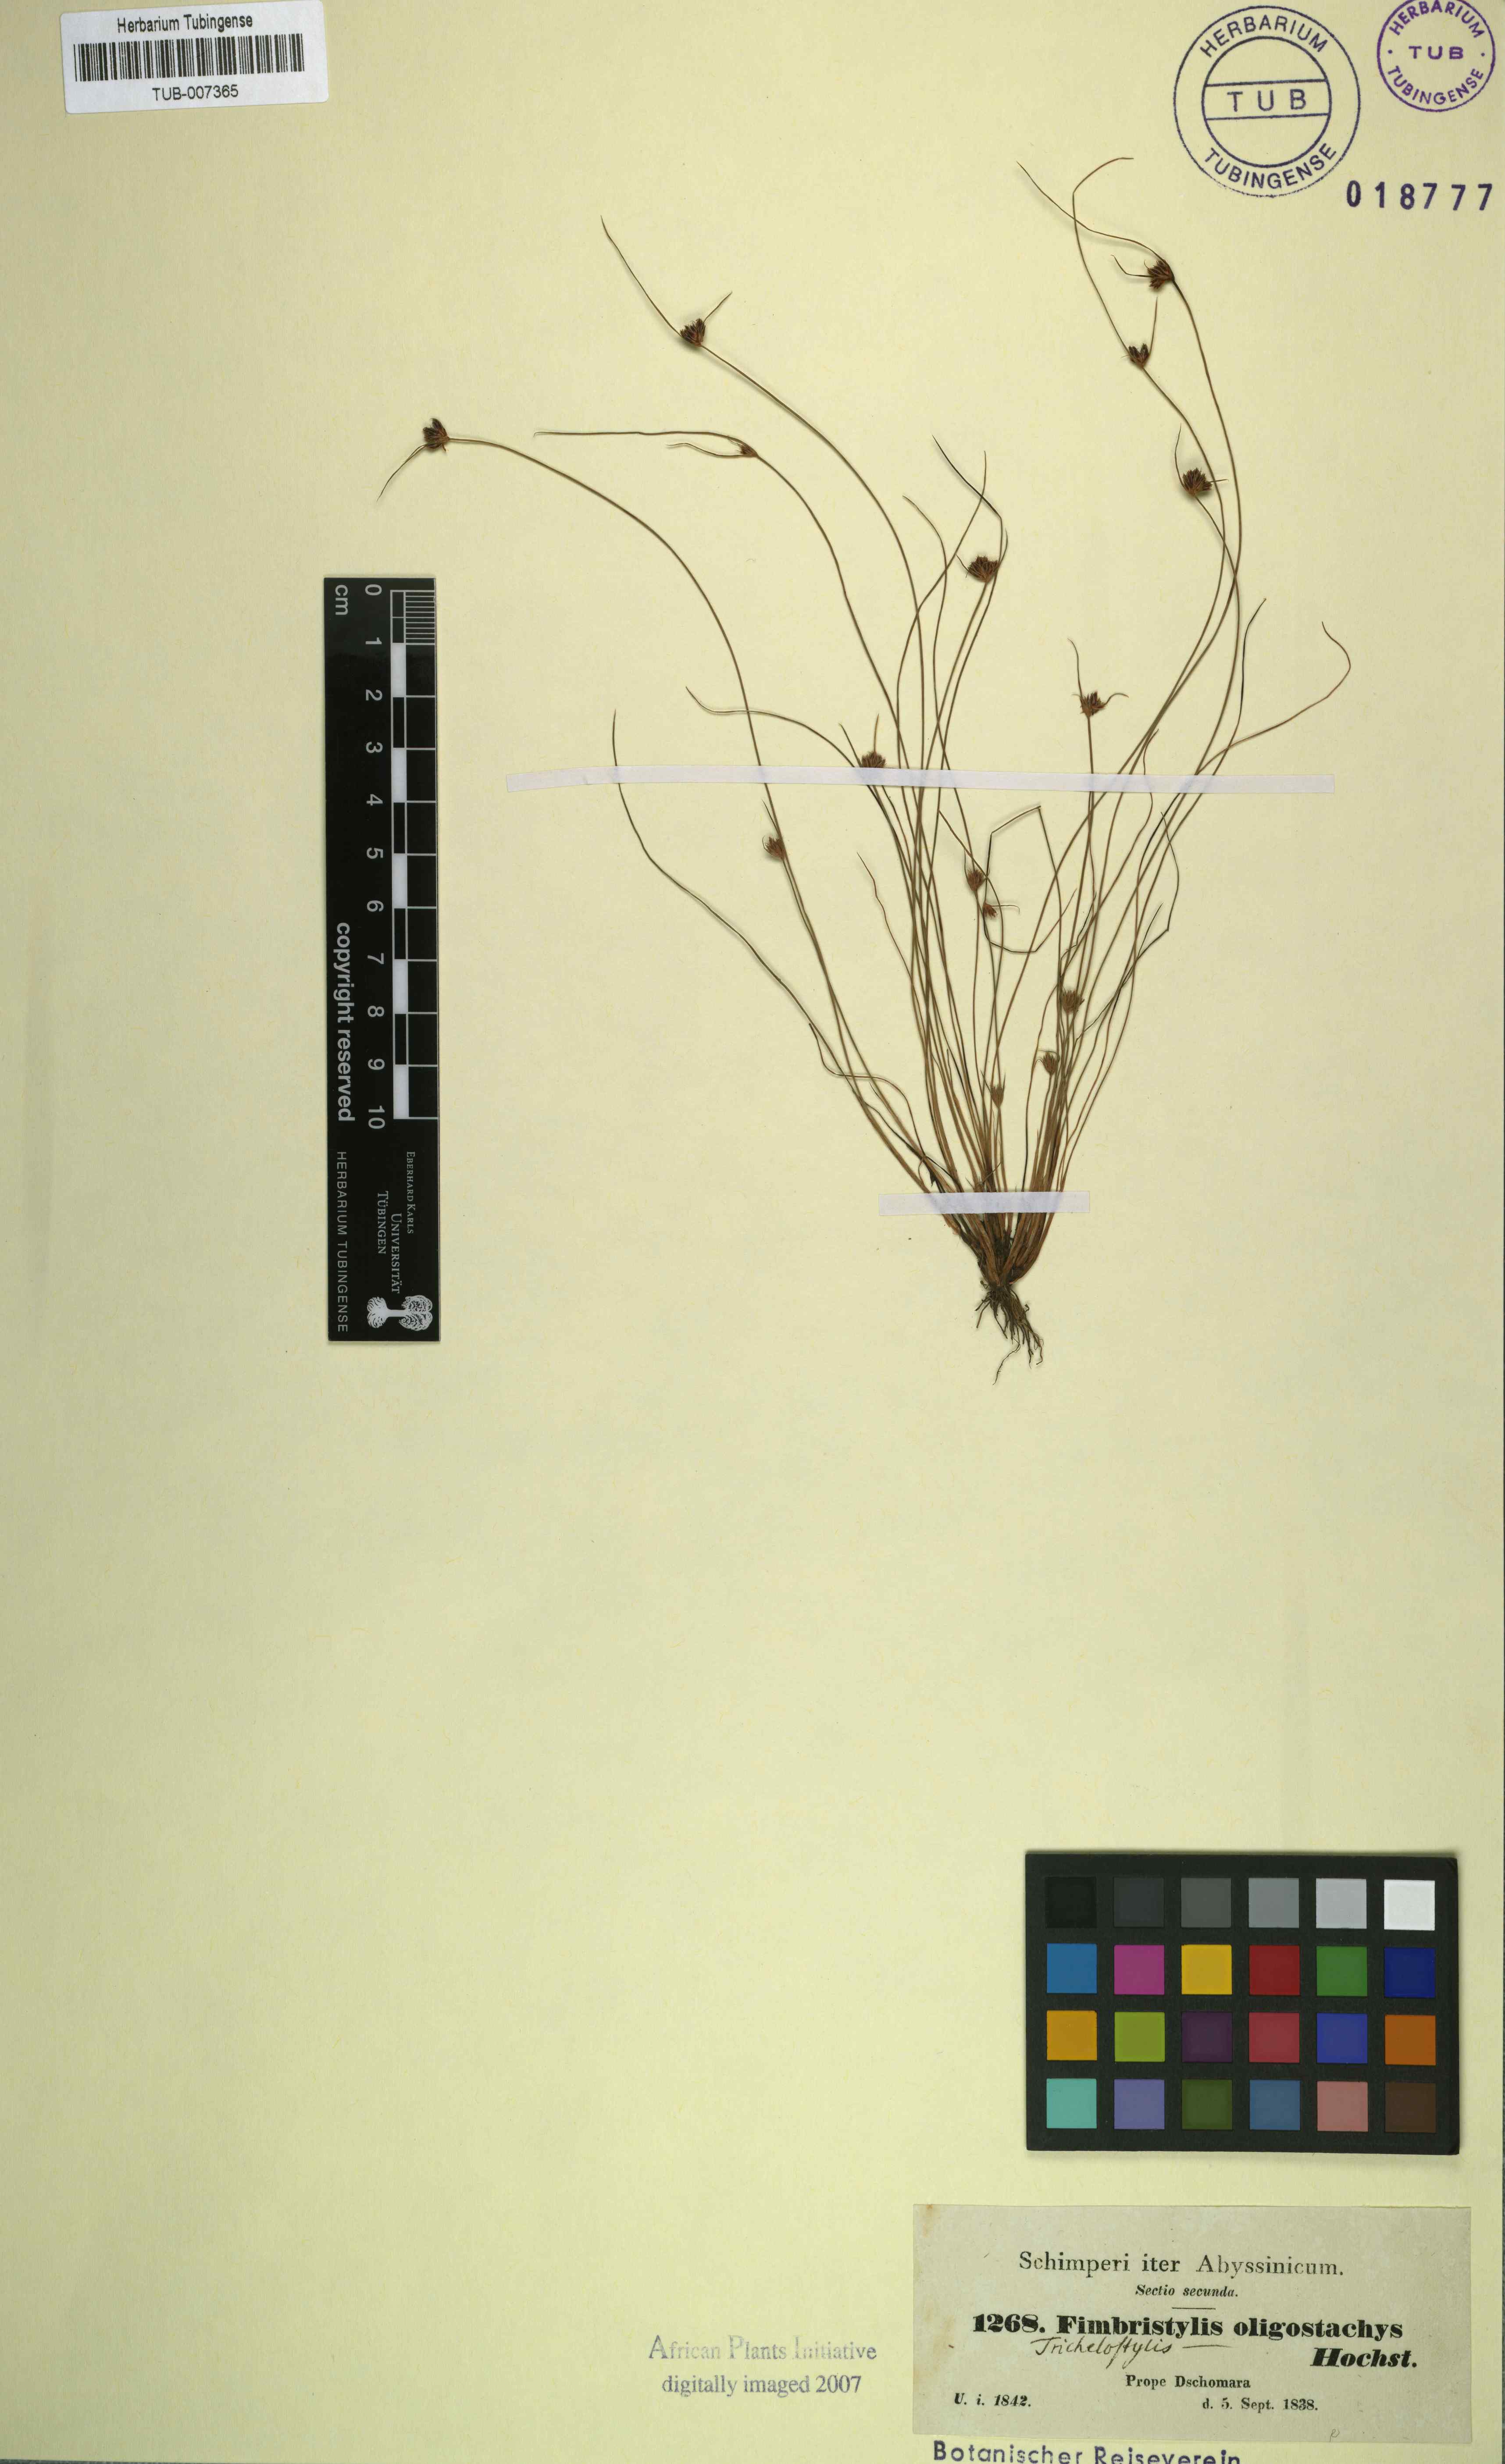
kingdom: Plantae
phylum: Tracheophyta
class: Liliopsida
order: Poales
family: Cyperaceae
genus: Bulbostylis
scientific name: Bulbostylis hispidula
